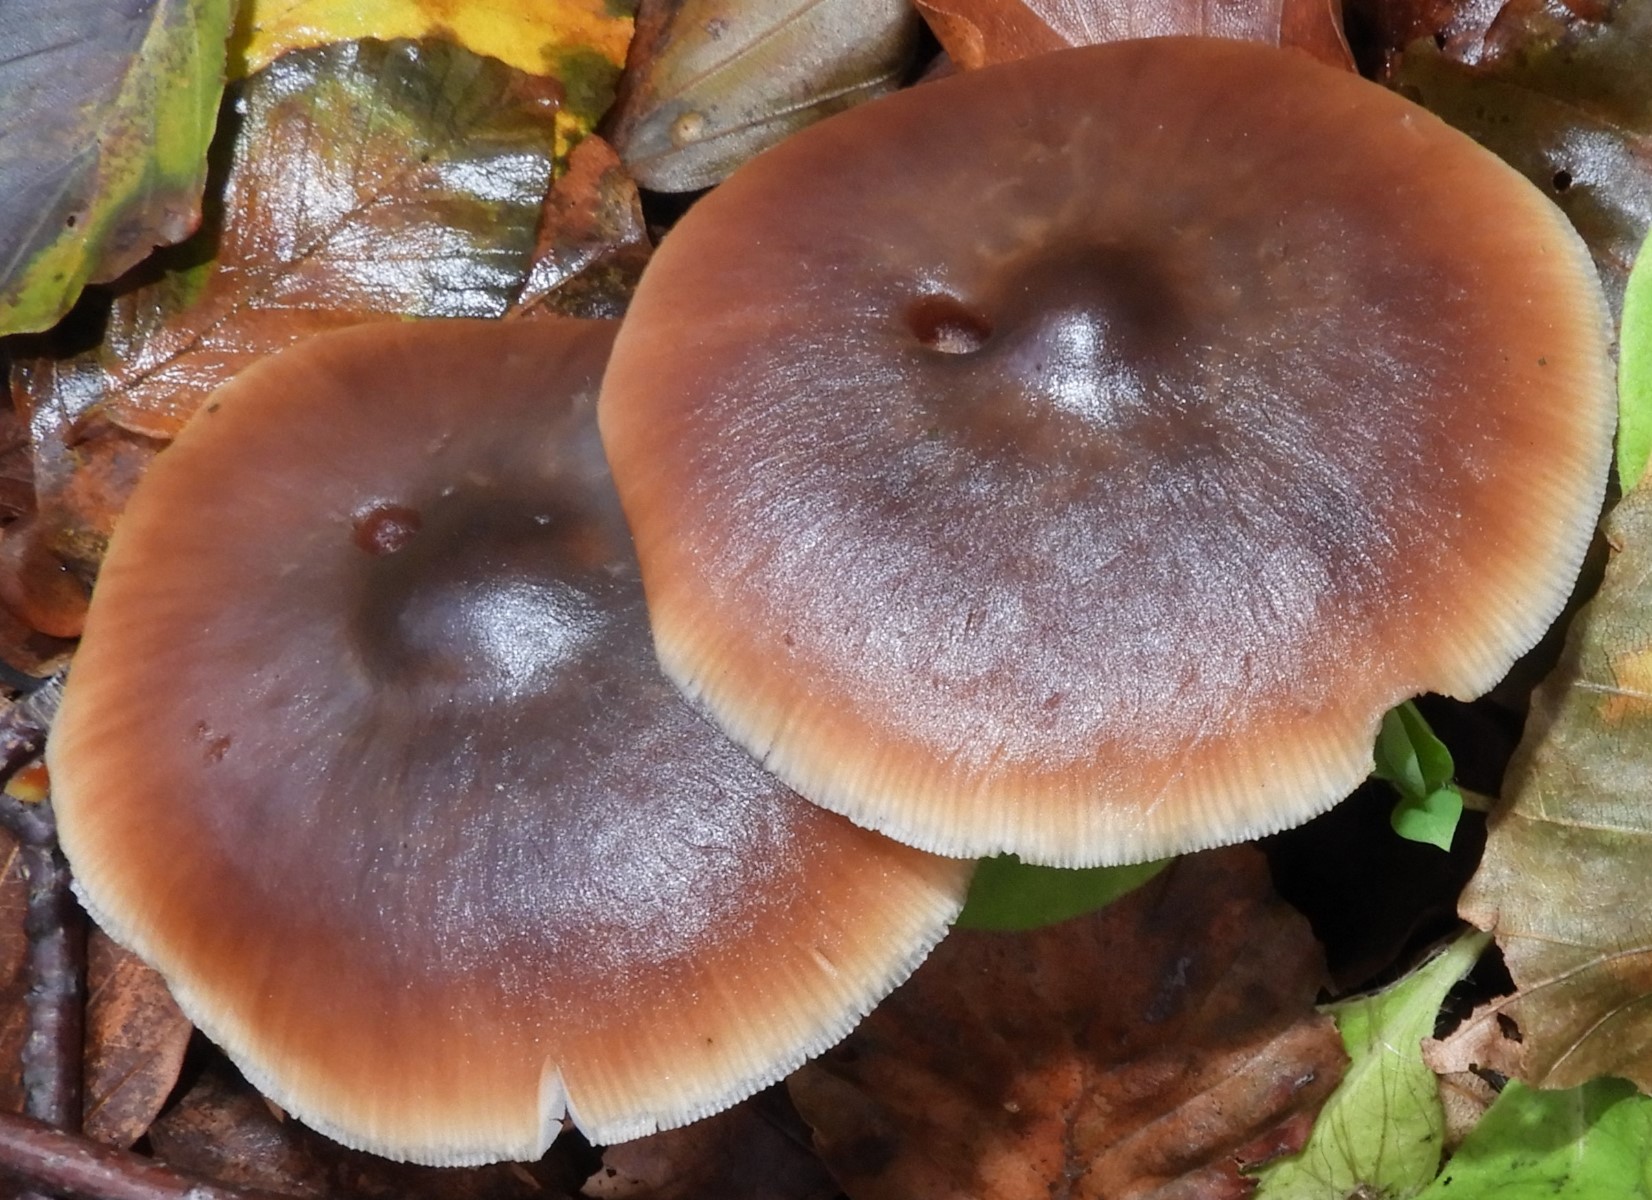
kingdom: Fungi
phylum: Basidiomycota
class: Agaricomycetes
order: Agaricales
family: Omphalotaceae
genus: Rhodocollybia
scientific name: Rhodocollybia butyracea
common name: keglestokket fladhat
